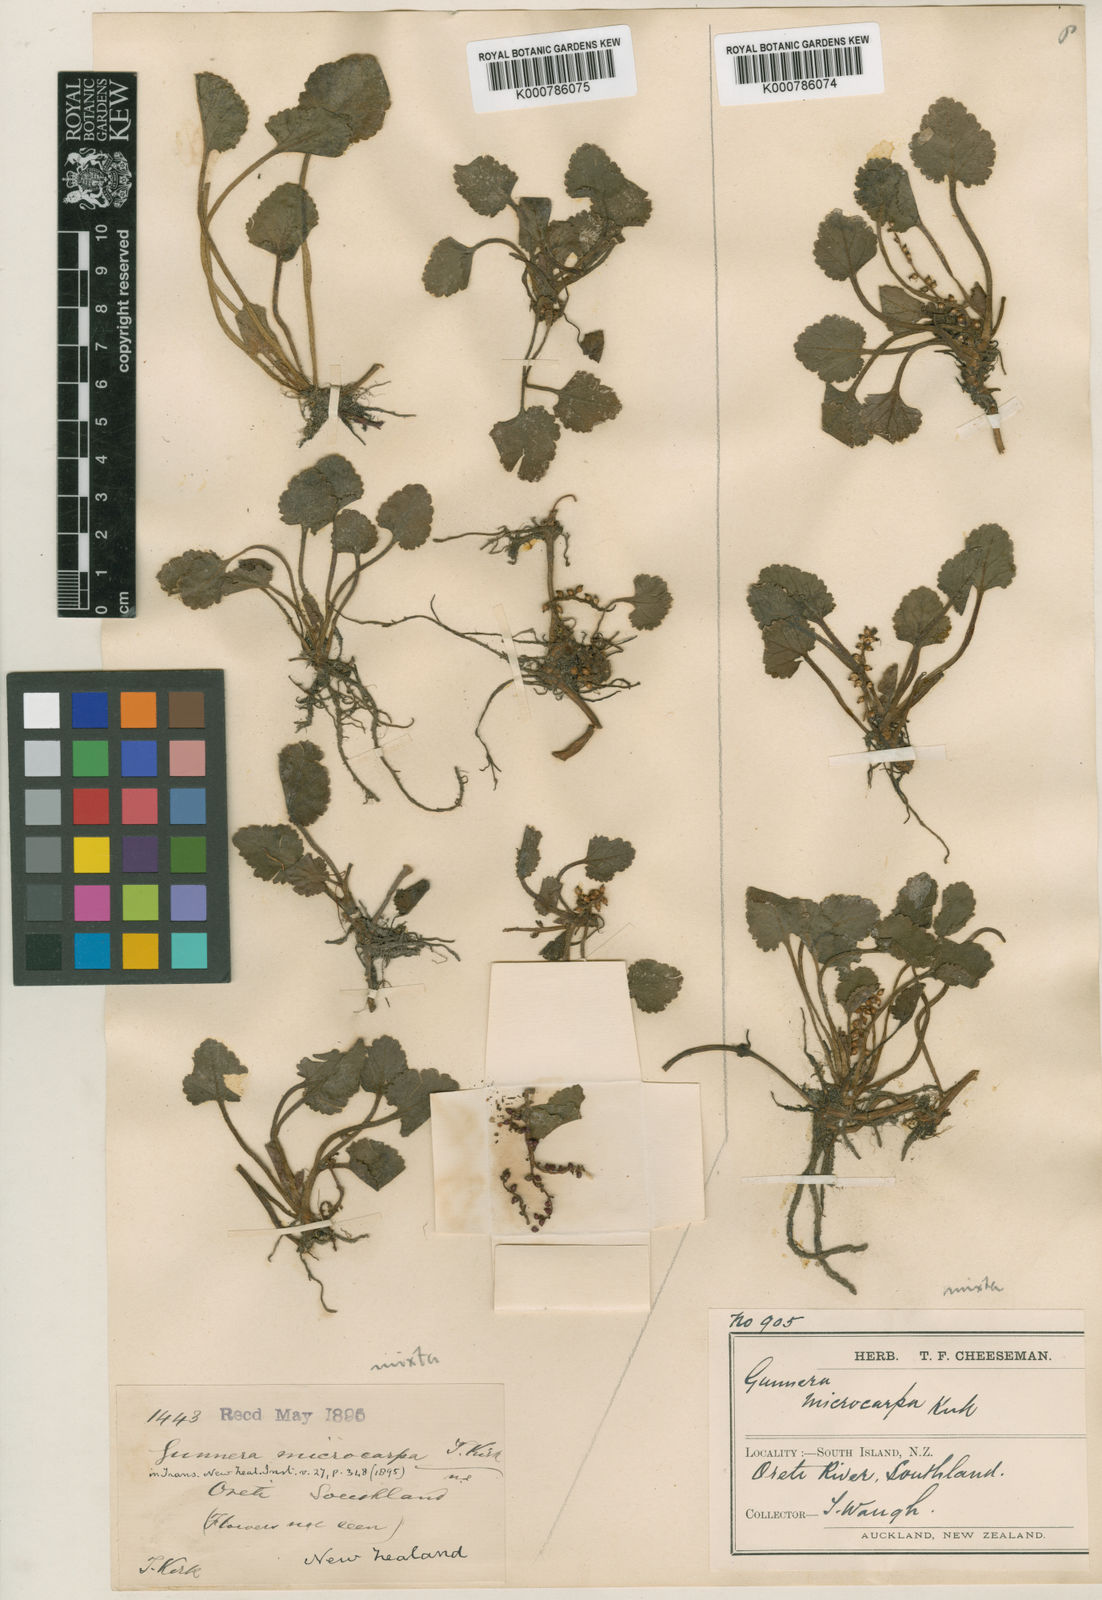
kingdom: Plantae
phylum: Tracheophyta
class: Magnoliopsida
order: Gunnerales
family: Gunneraceae
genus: Gunnera
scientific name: Gunnera monoica
